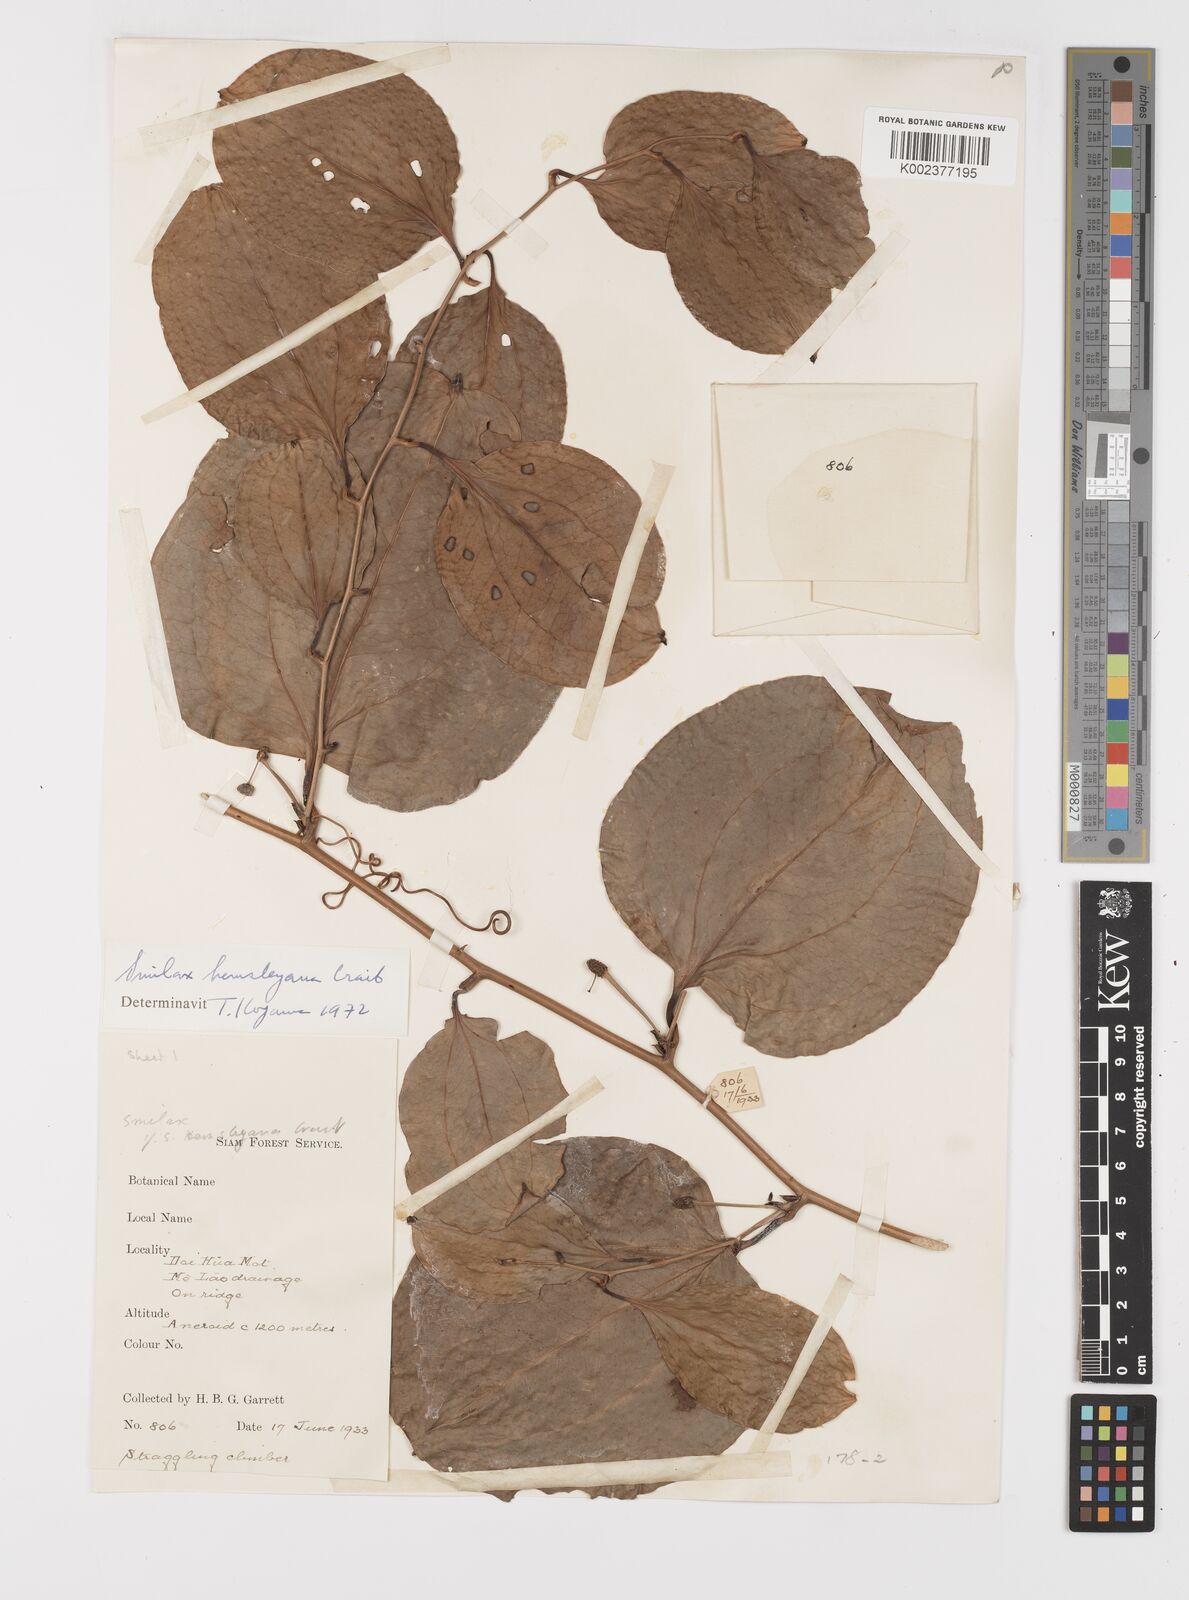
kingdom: Plantae
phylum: Tracheophyta
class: Liliopsida
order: Liliales
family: Smilacaceae
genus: Smilax
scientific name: Smilax hemsleyana
